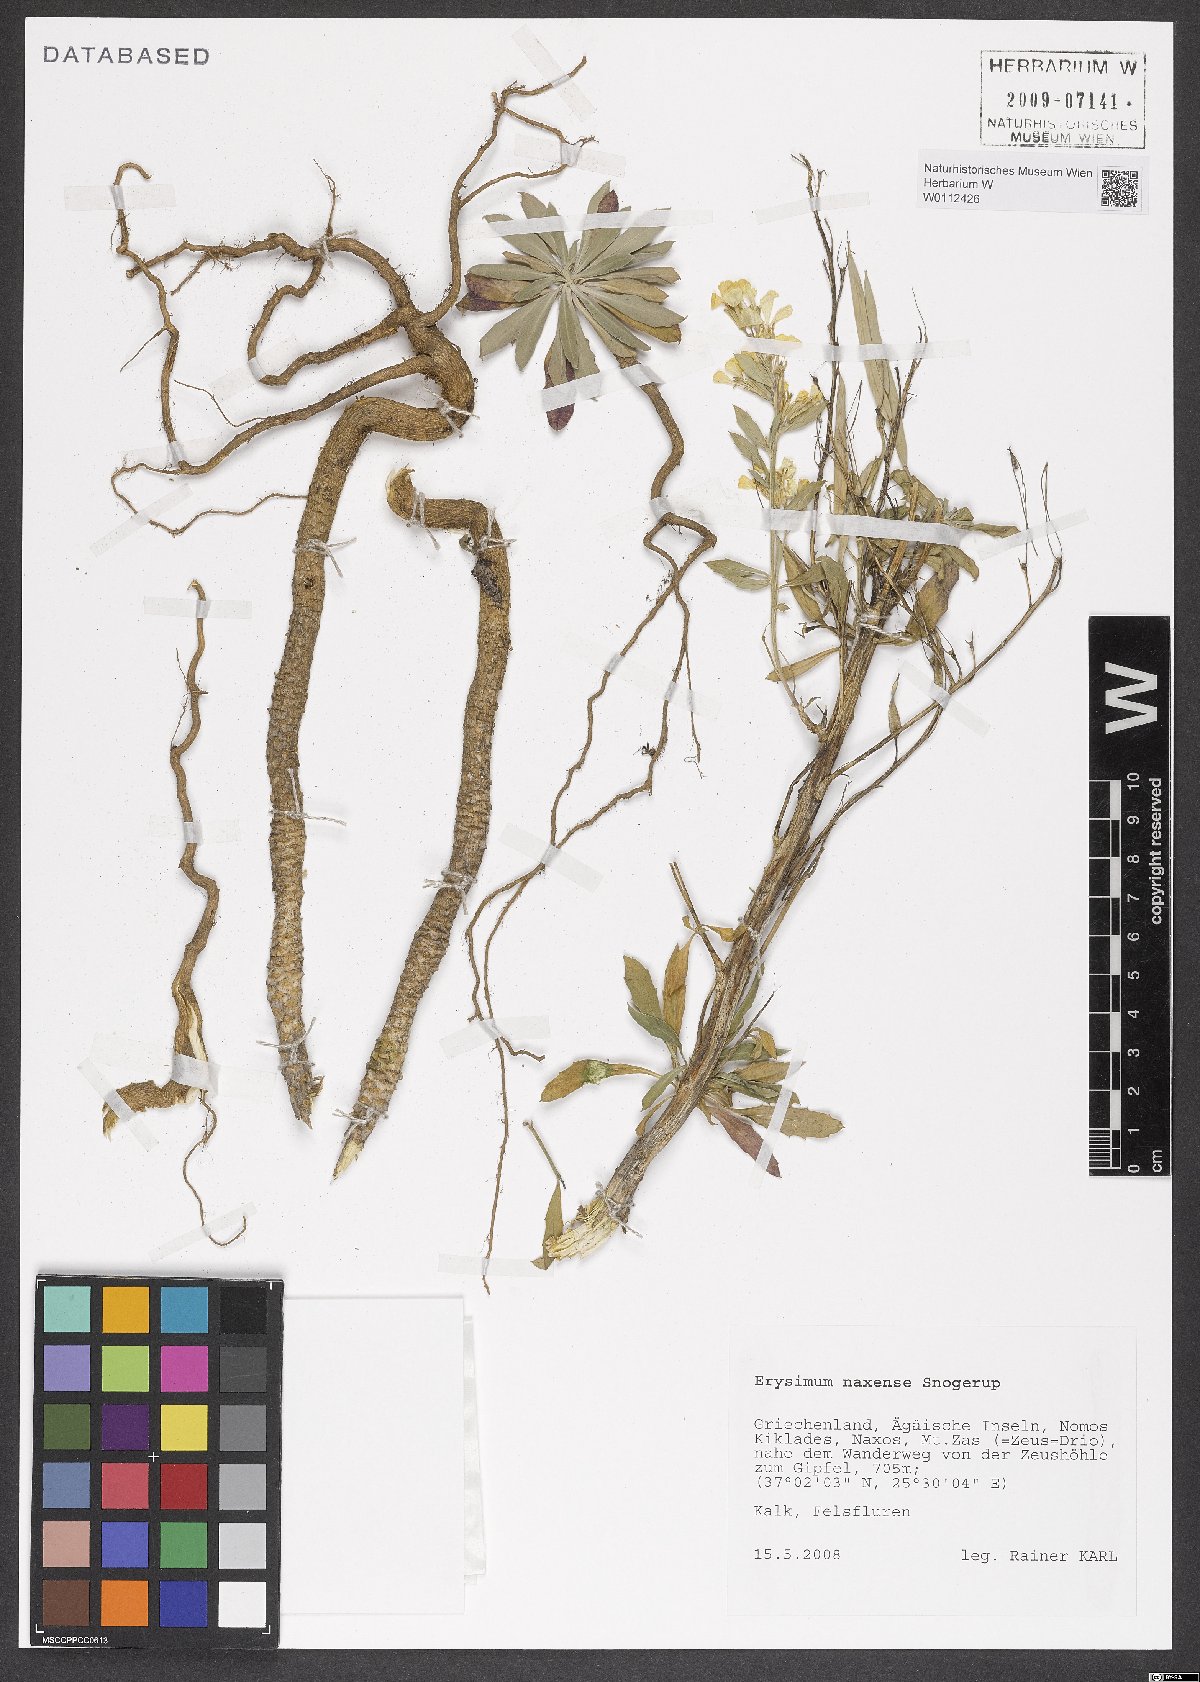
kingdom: Plantae
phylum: Tracheophyta
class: Magnoliopsida
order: Brassicales
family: Brassicaceae
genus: Erysimum
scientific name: Erysimum naxense
